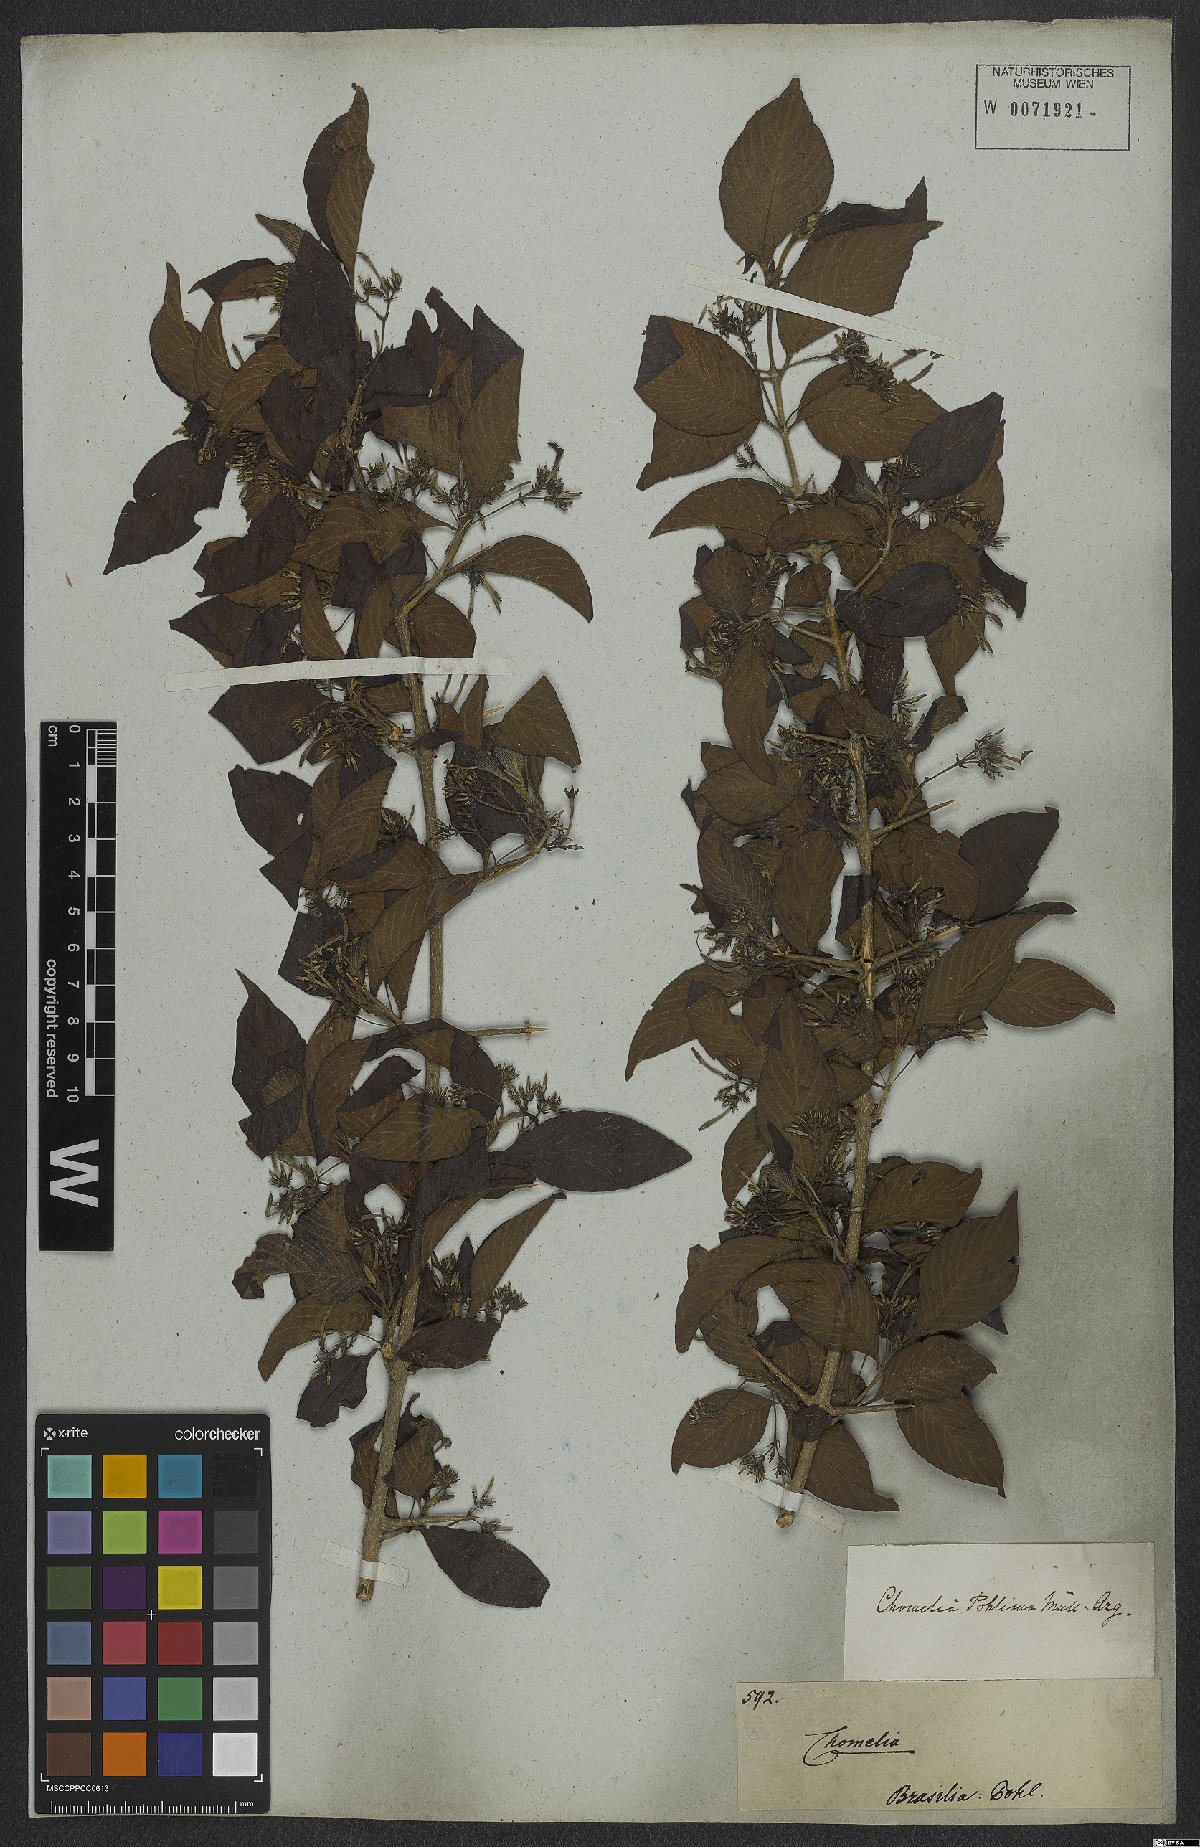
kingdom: Plantae
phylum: Tracheophyta
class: Magnoliopsida
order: Gentianales
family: Rubiaceae
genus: Chomelia
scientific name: Chomelia pohliana
